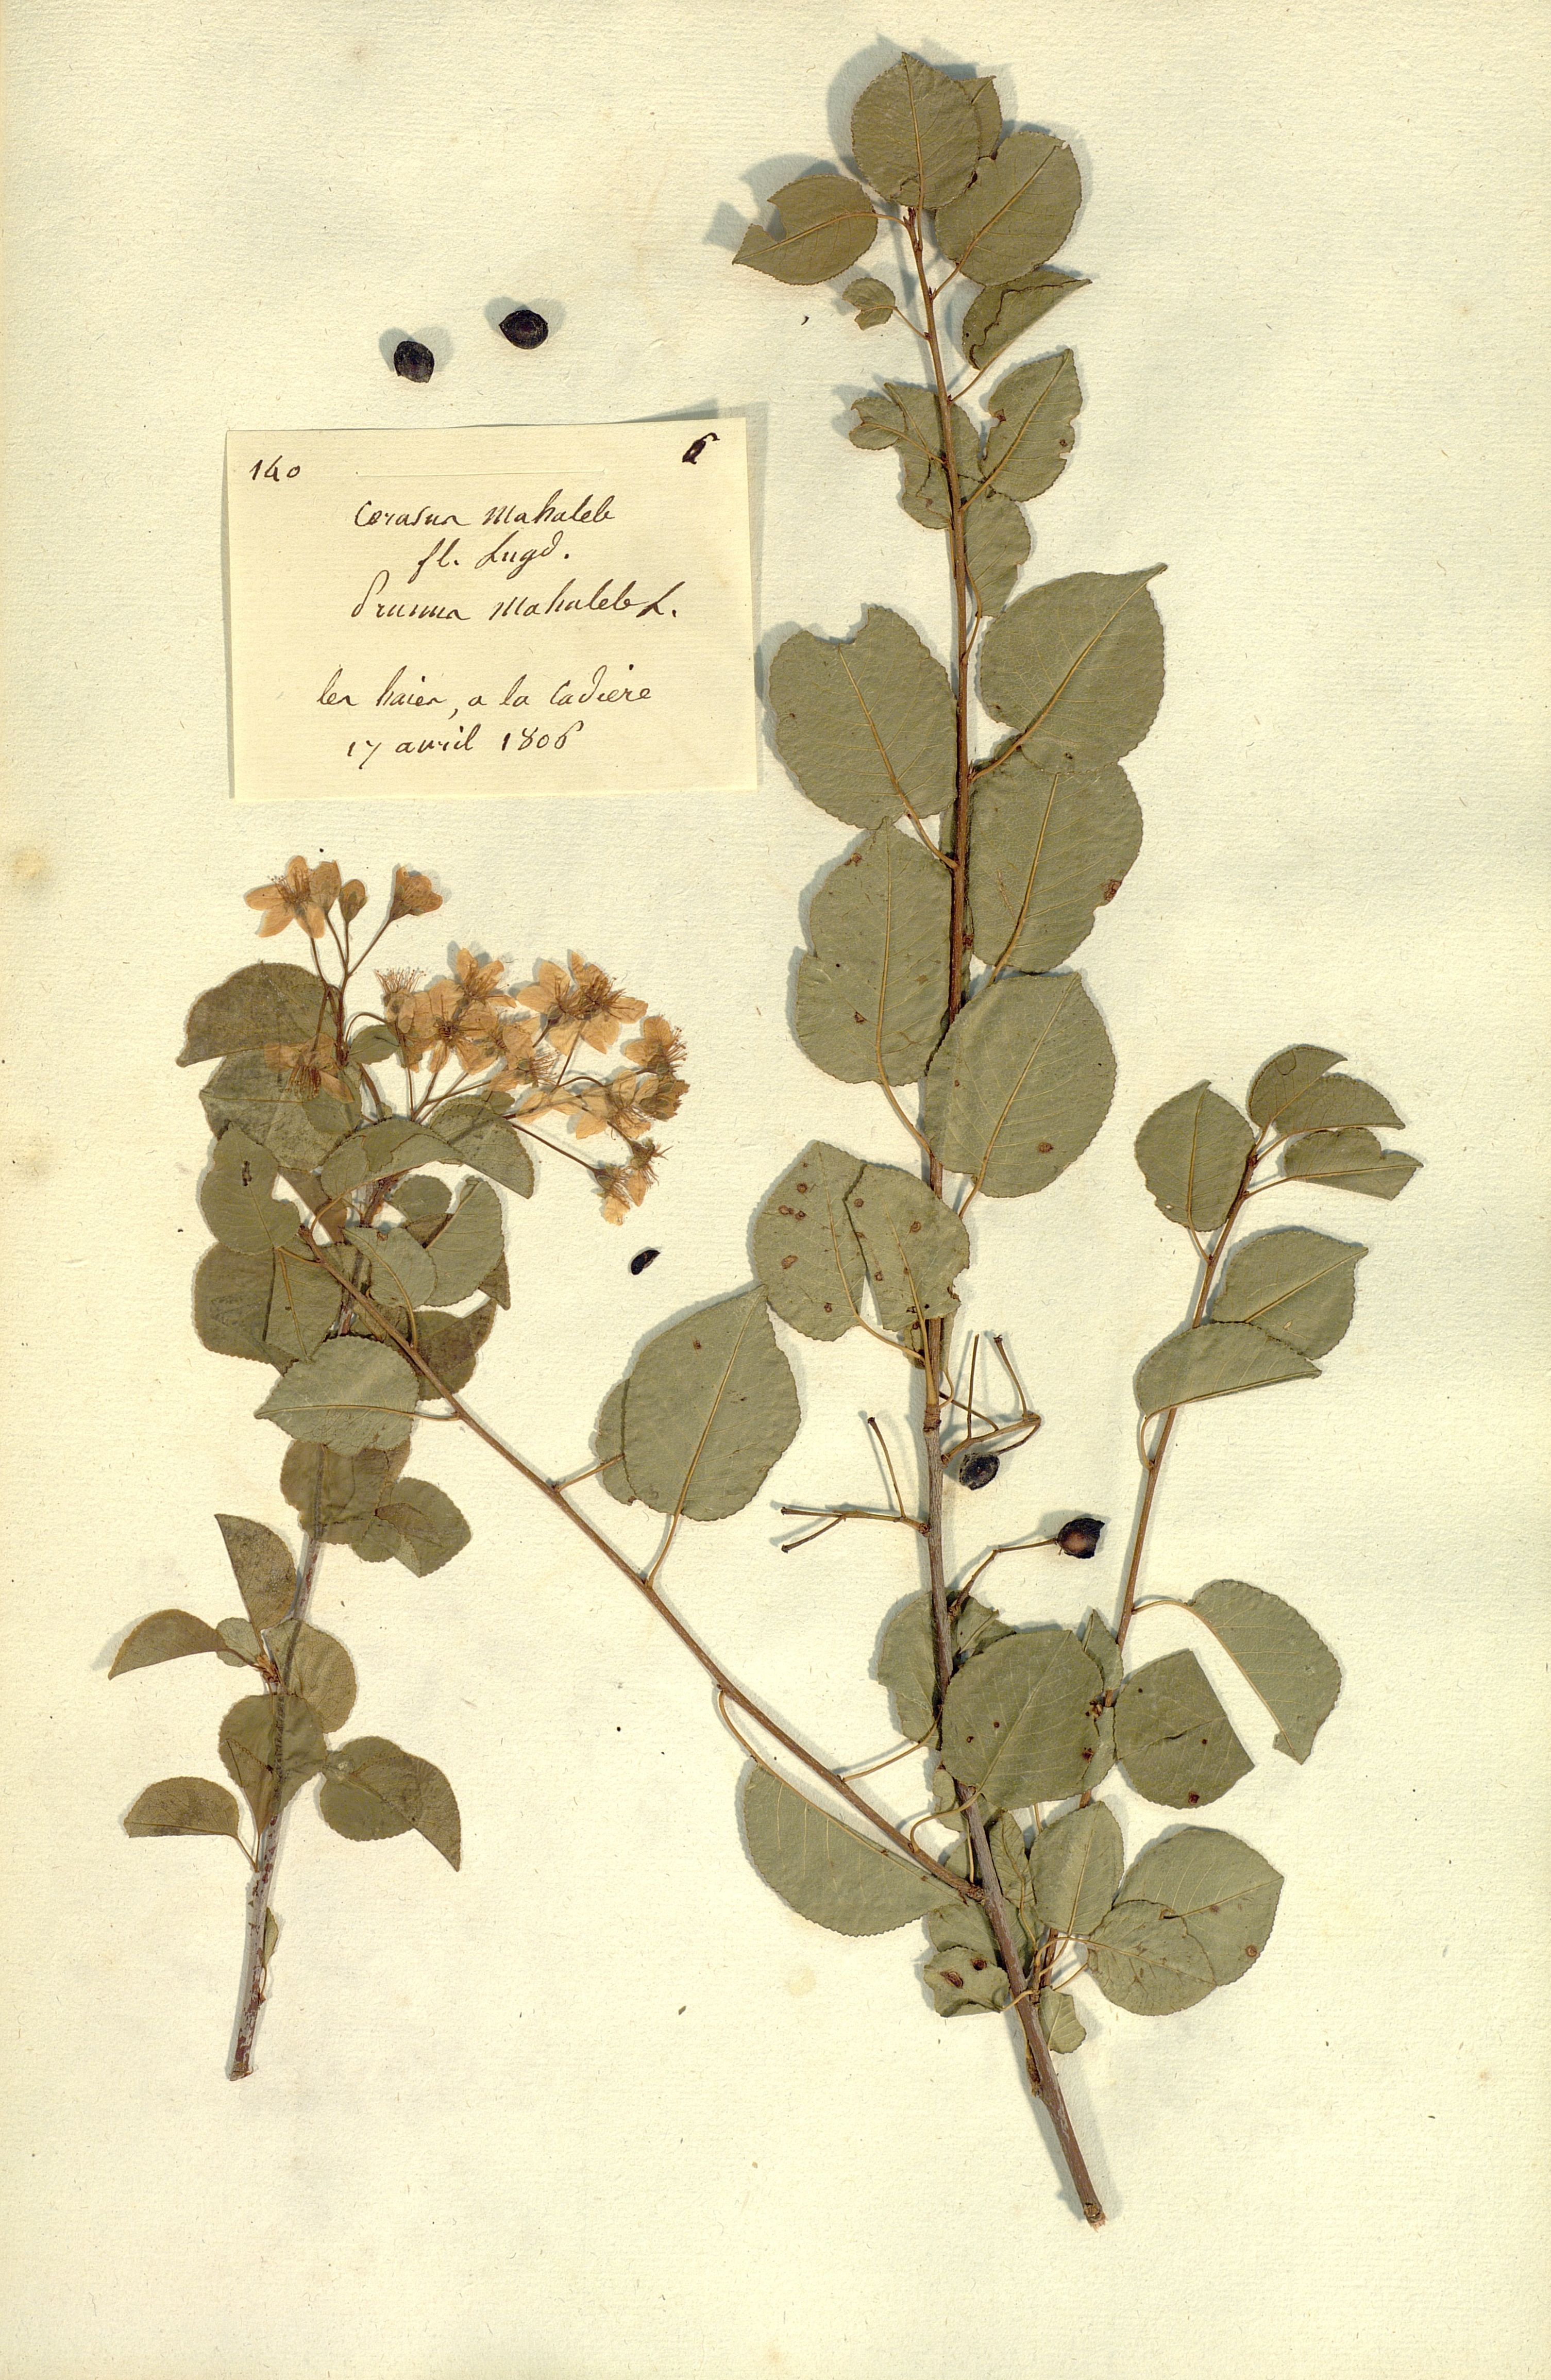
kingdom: Plantae
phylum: Tracheophyta
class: Magnoliopsida
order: Rosales
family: Rosaceae
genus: Prunus
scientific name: Prunus mahaleb
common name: Mahaleb cherry
